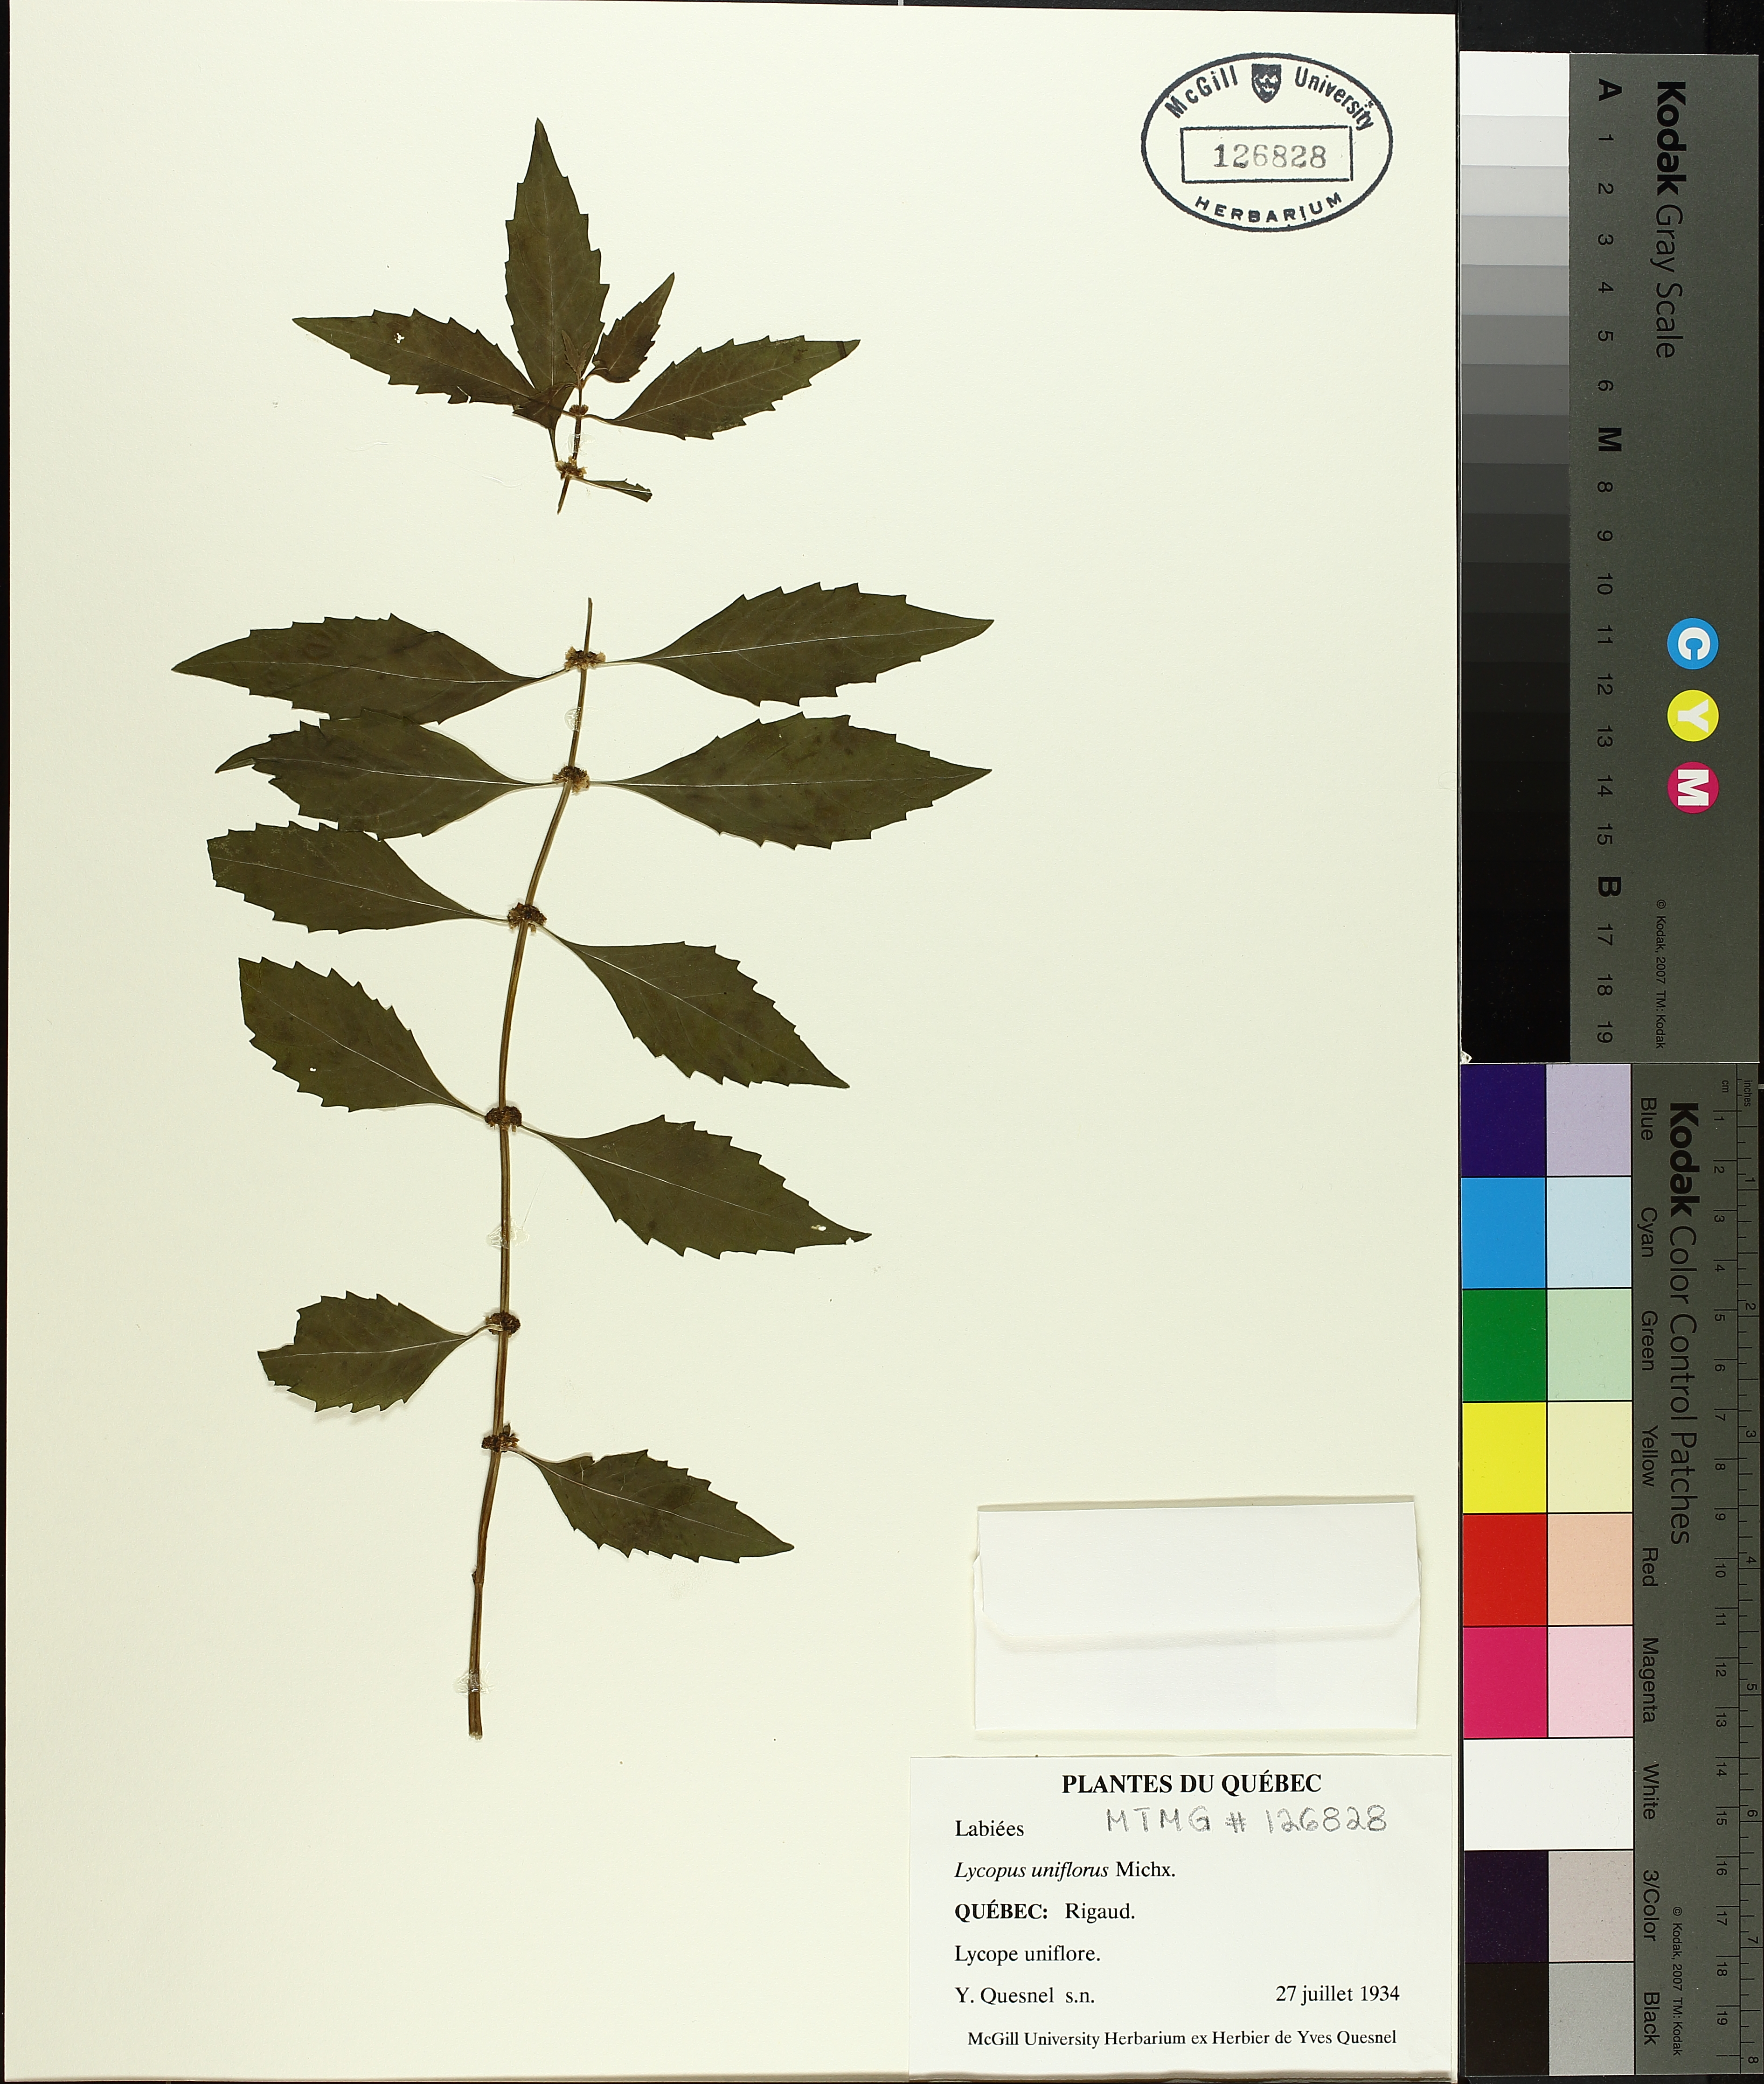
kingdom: Plantae
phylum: Tracheophyta
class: Magnoliopsida
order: Lamiales
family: Lamiaceae
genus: Lycopus
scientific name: Lycopus uniflorus
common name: Northern bugleweed
